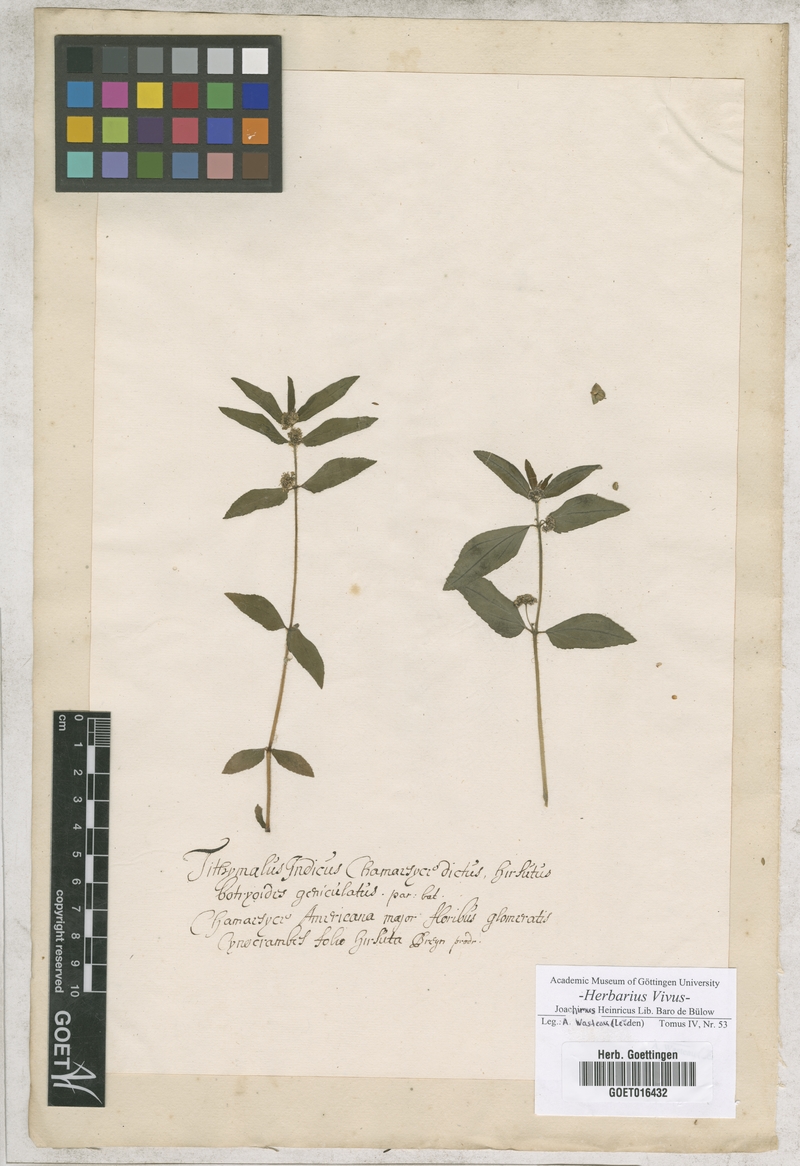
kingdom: Plantae
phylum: Tracheophyta
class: Magnoliopsida
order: Malpighiales
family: Euphorbiaceae
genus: Tithymalus
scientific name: Tithymalus
